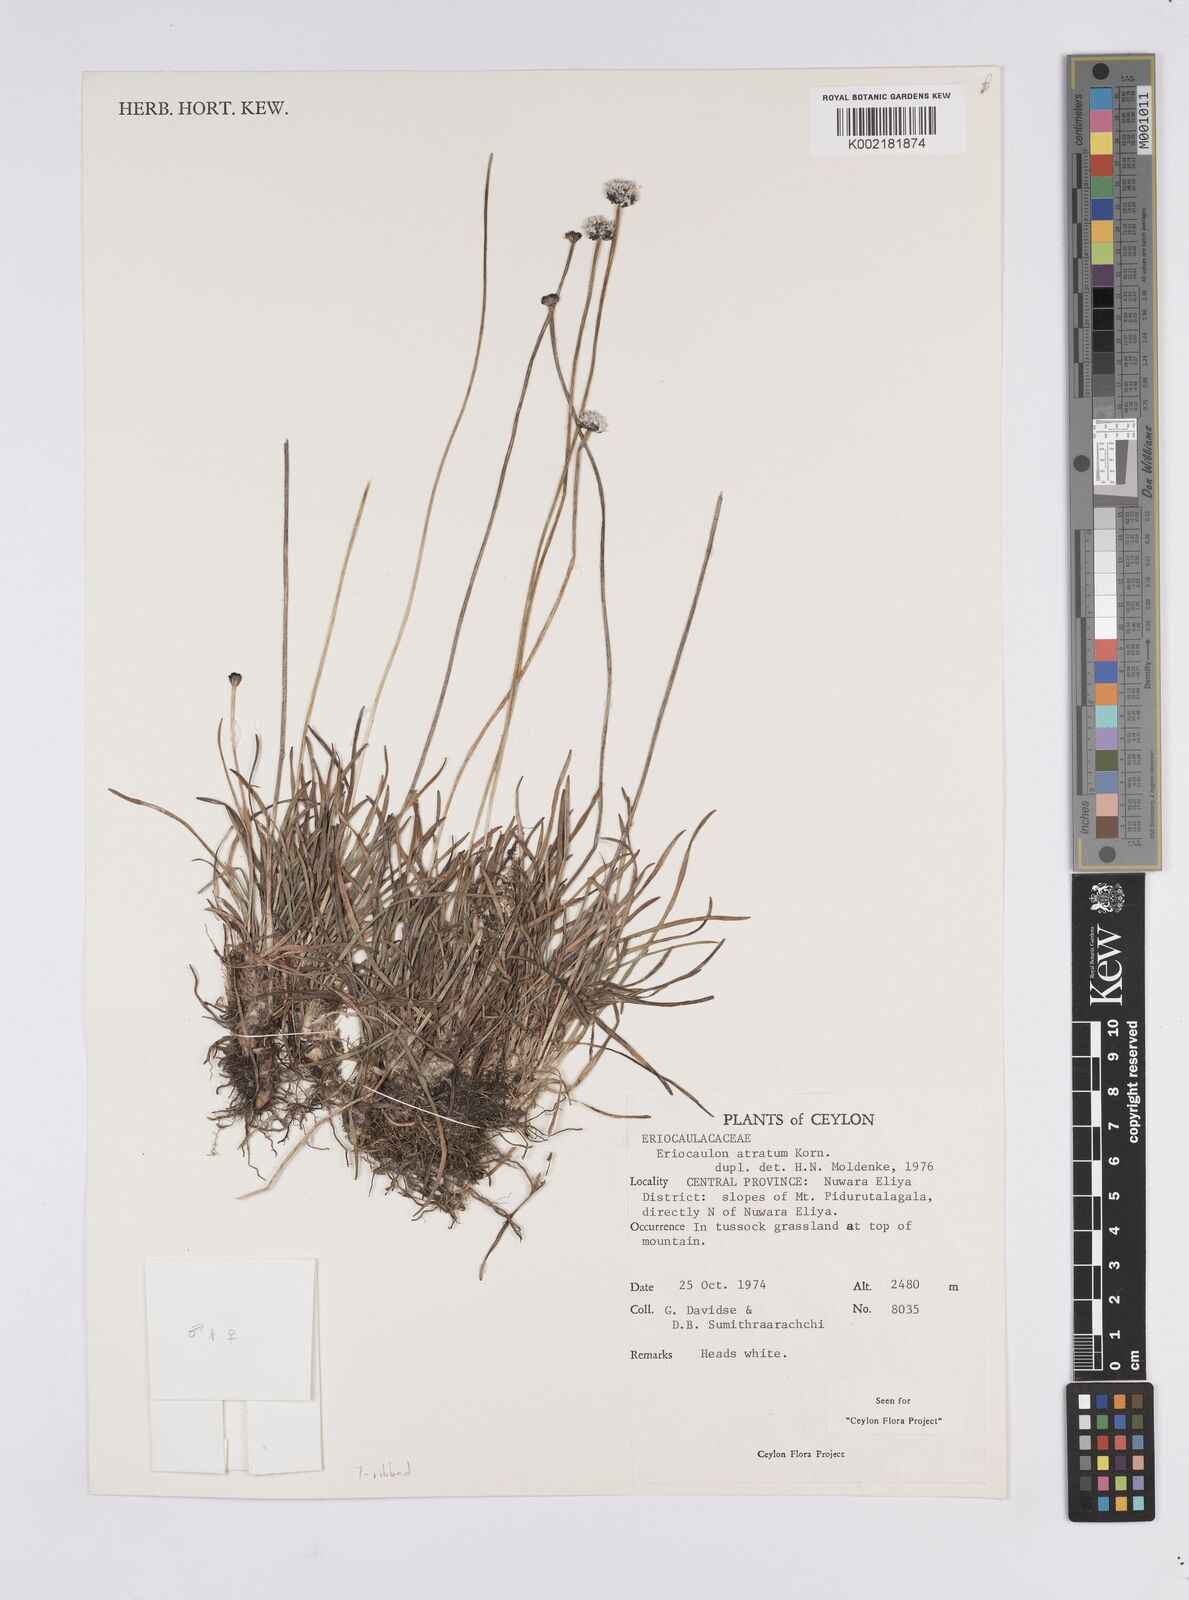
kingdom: Plantae
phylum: Tracheophyta
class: Liliopsida
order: Poales
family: Eriocaulaceae
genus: Eriocaulon
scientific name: Eriocaulon atratum
